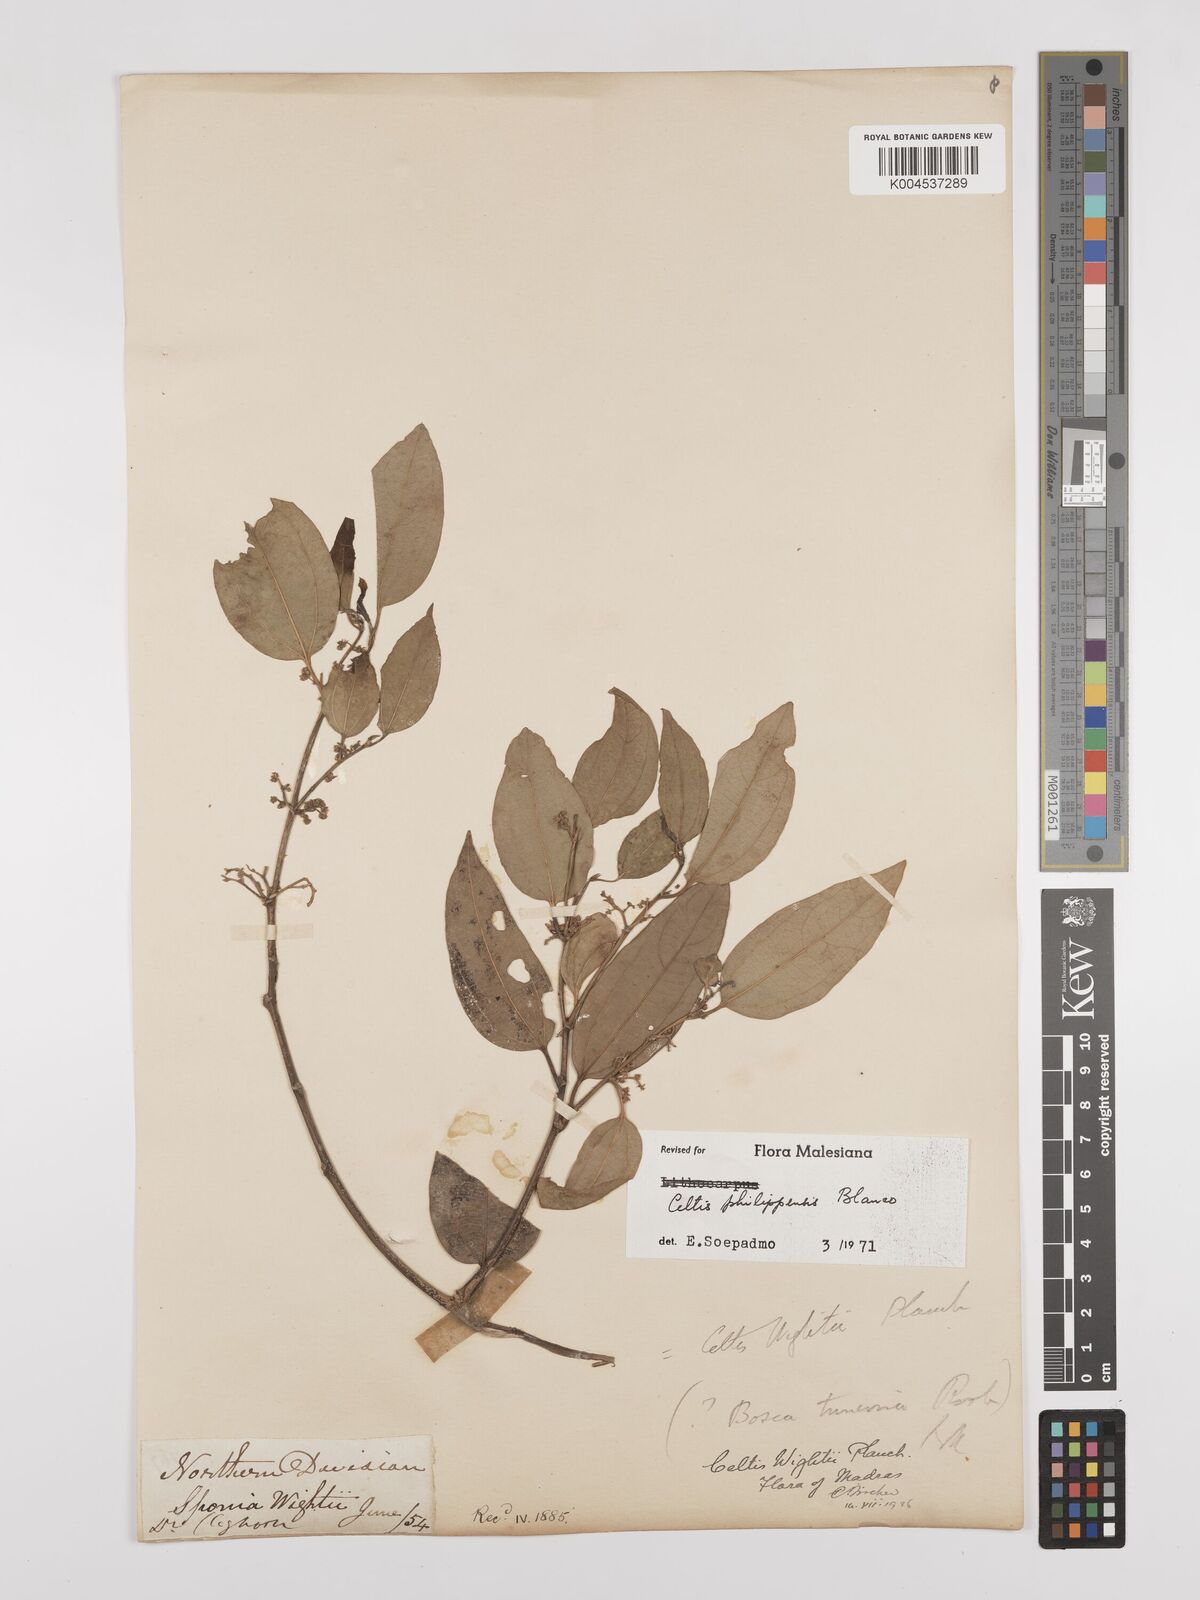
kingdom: Plantae
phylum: Tracheophyta
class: Magnoliopsida
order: Rosales
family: Cannabaceae
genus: Celtis
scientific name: Celtis philippensis
